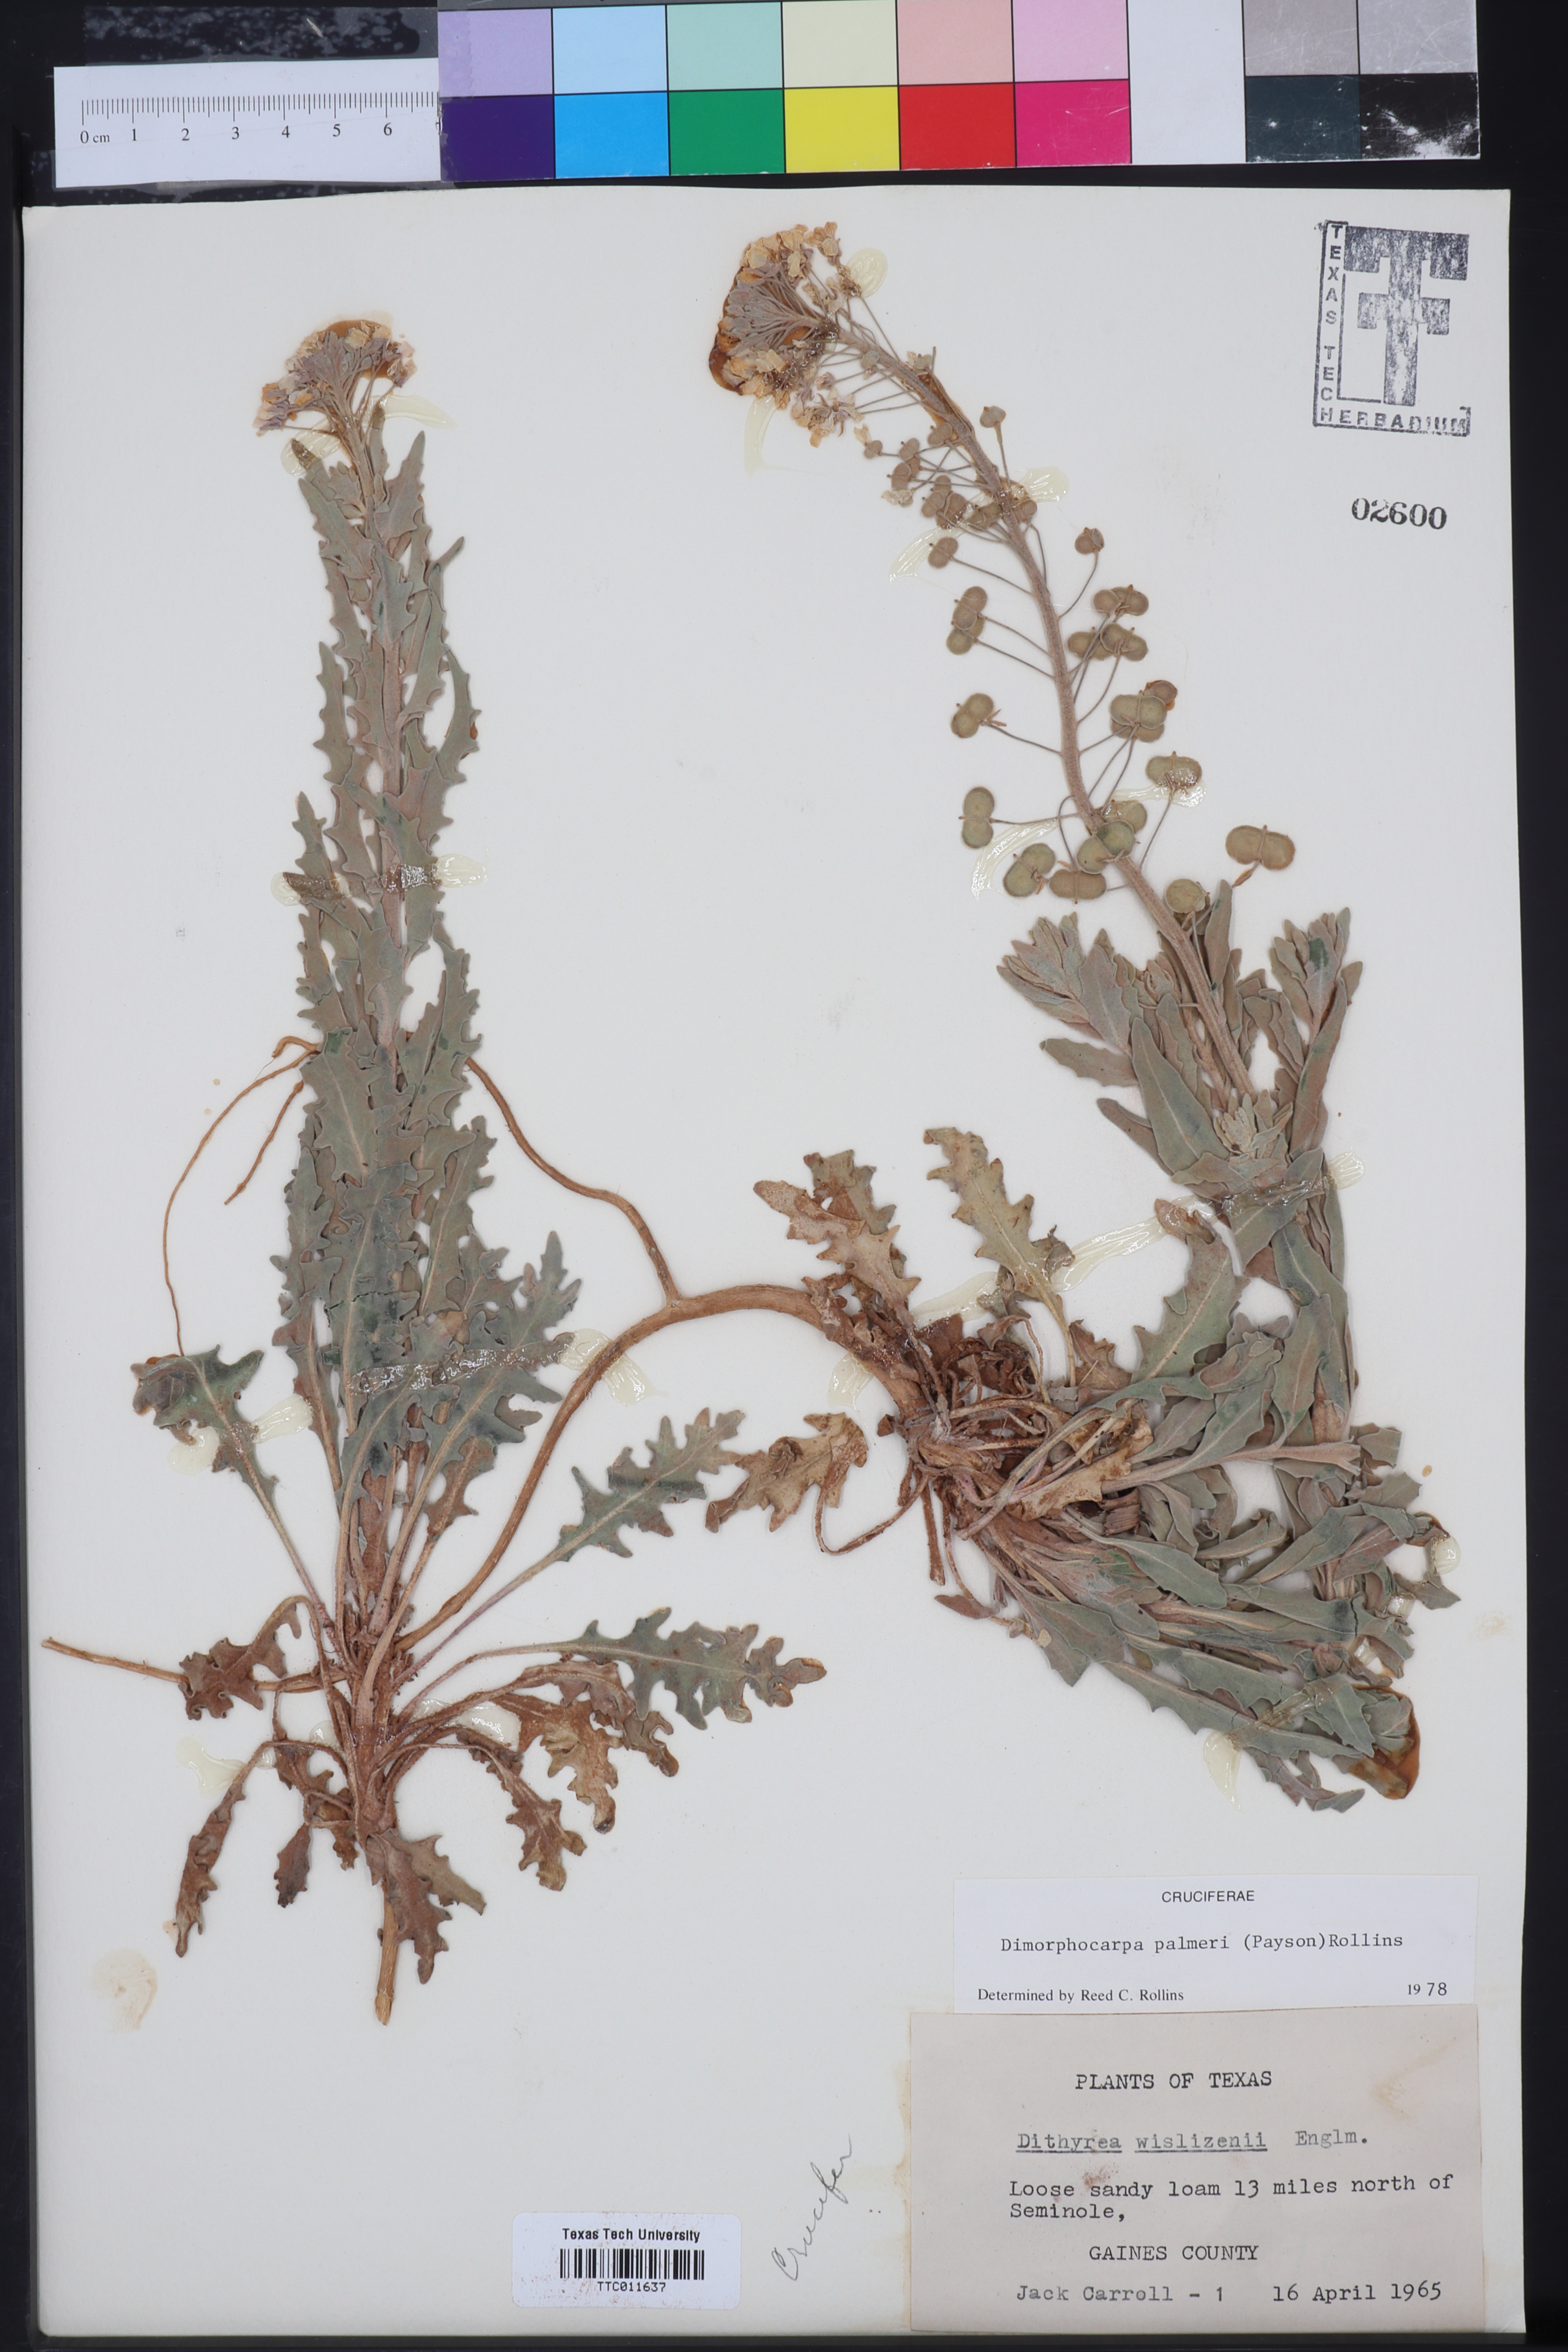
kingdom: Plantae
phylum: Tracheophyta
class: Magnoliopsida
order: Brassicales
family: Brassicaceae
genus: Dimorphocarpa
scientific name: Dimorphocarpa candicans
